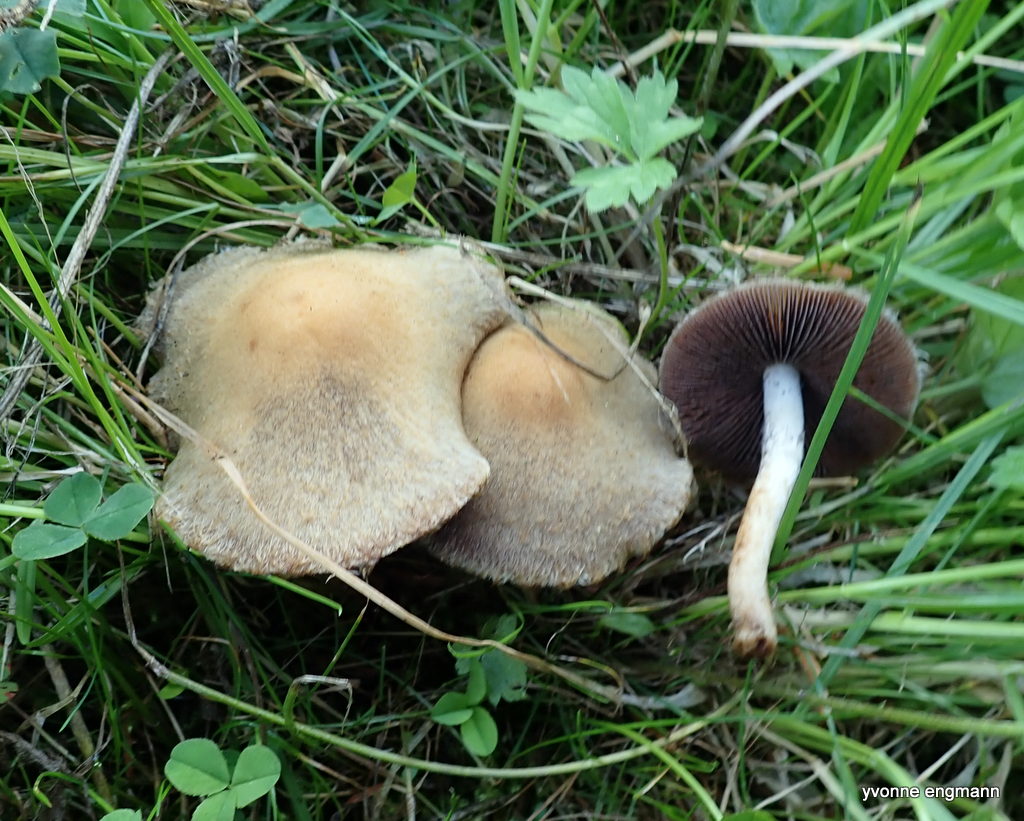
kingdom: Fungi
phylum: Basidiomycota
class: Agaricomycetes
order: Agaricales
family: Psathyrellaceae
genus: Lacrymaria
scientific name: Lacrymaria lacrymabunda
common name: grædende mørkhat
